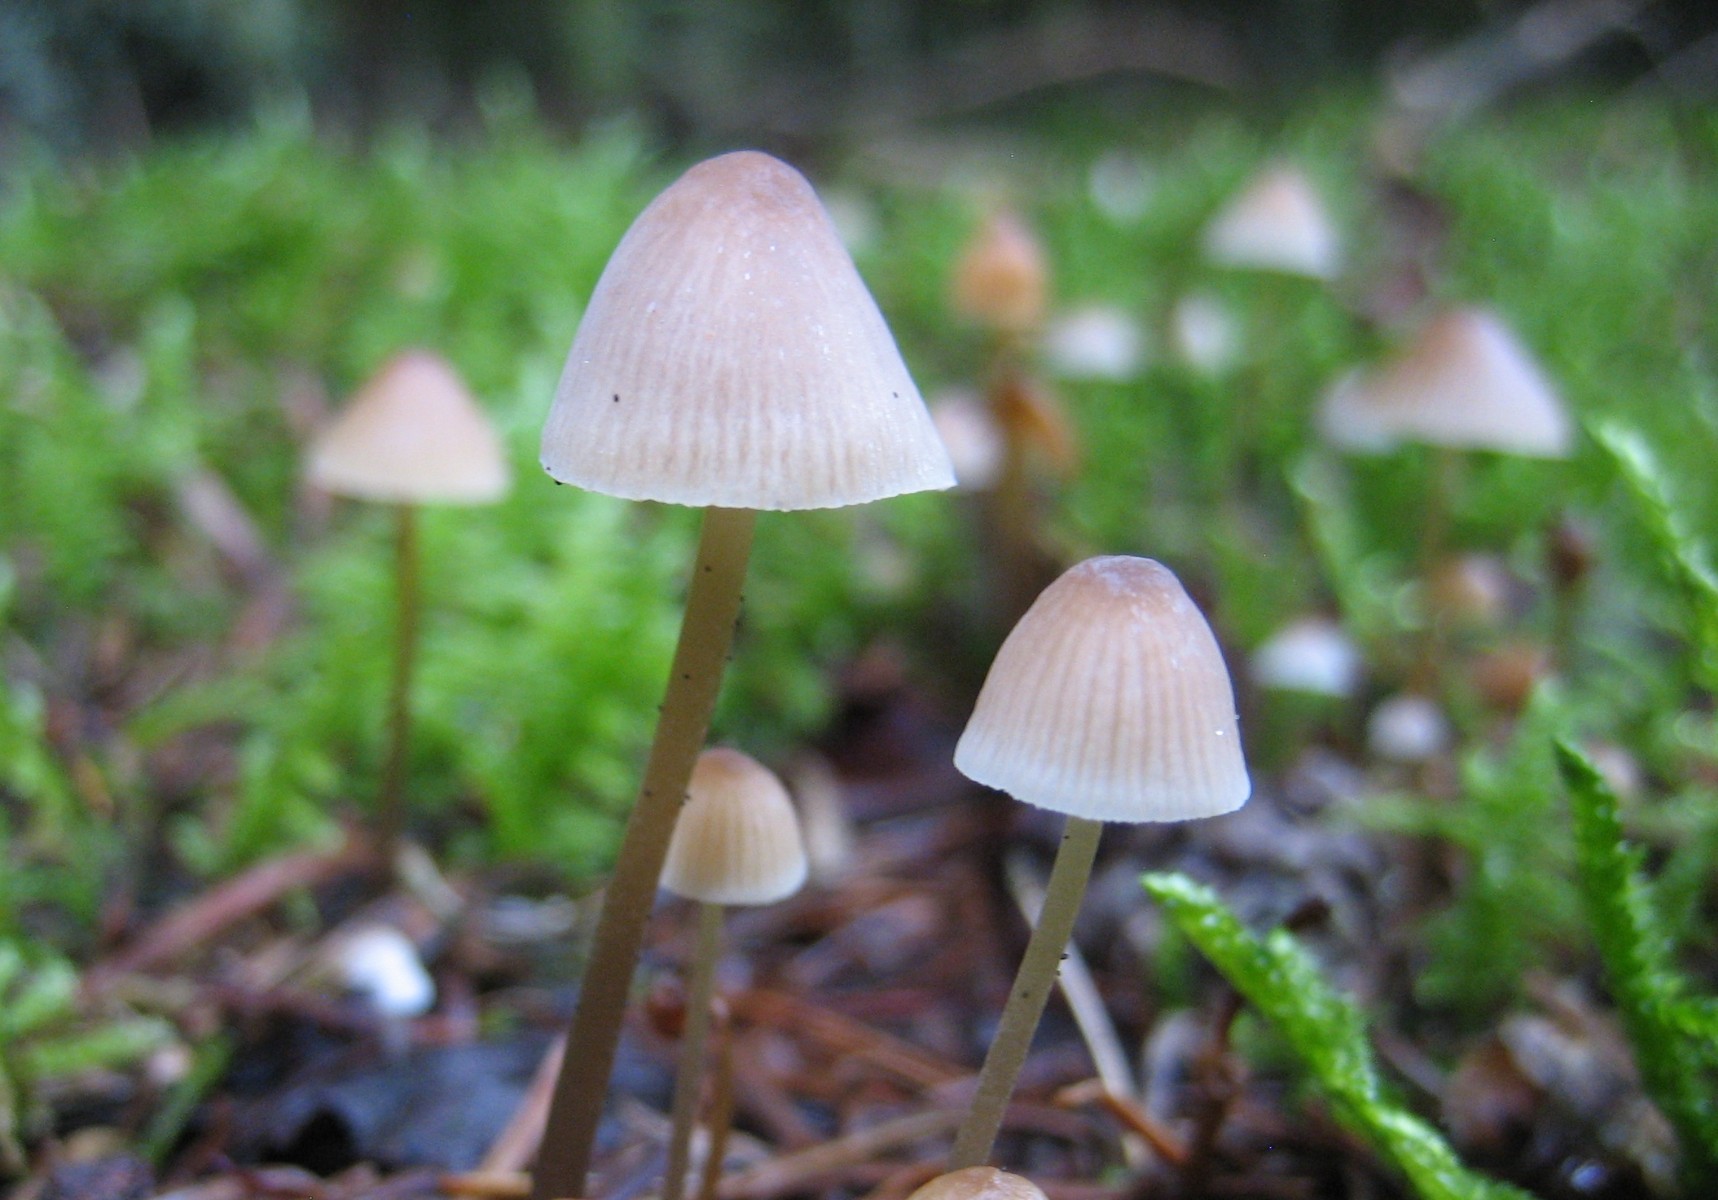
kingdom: Fungi
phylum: Basidiomycota
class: Agaricomycetes
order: Agaricales
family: Mycenaceae
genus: Mycena
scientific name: Mycena
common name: huesvamp
